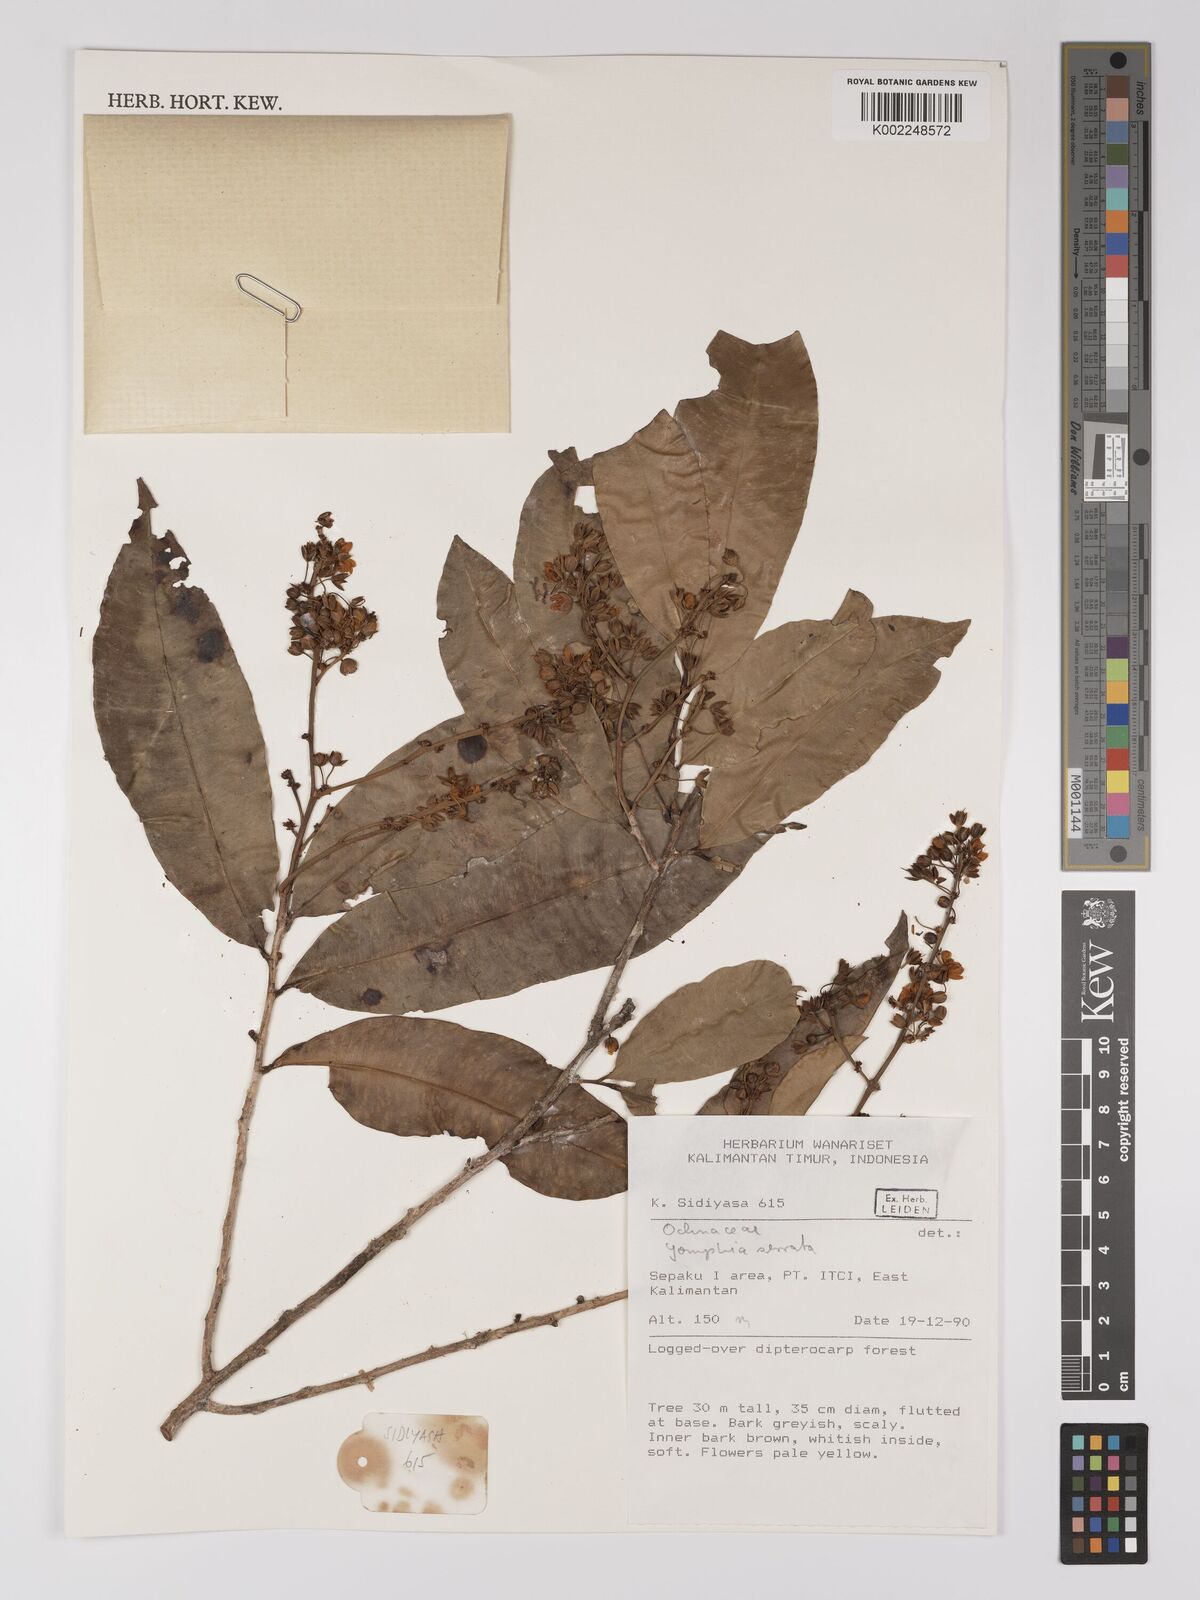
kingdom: Plantae
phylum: Tracheophyta
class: Magnoliopsida
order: Malpighiales
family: Ochnaceae
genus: Campylospermum
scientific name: Campylospermum
